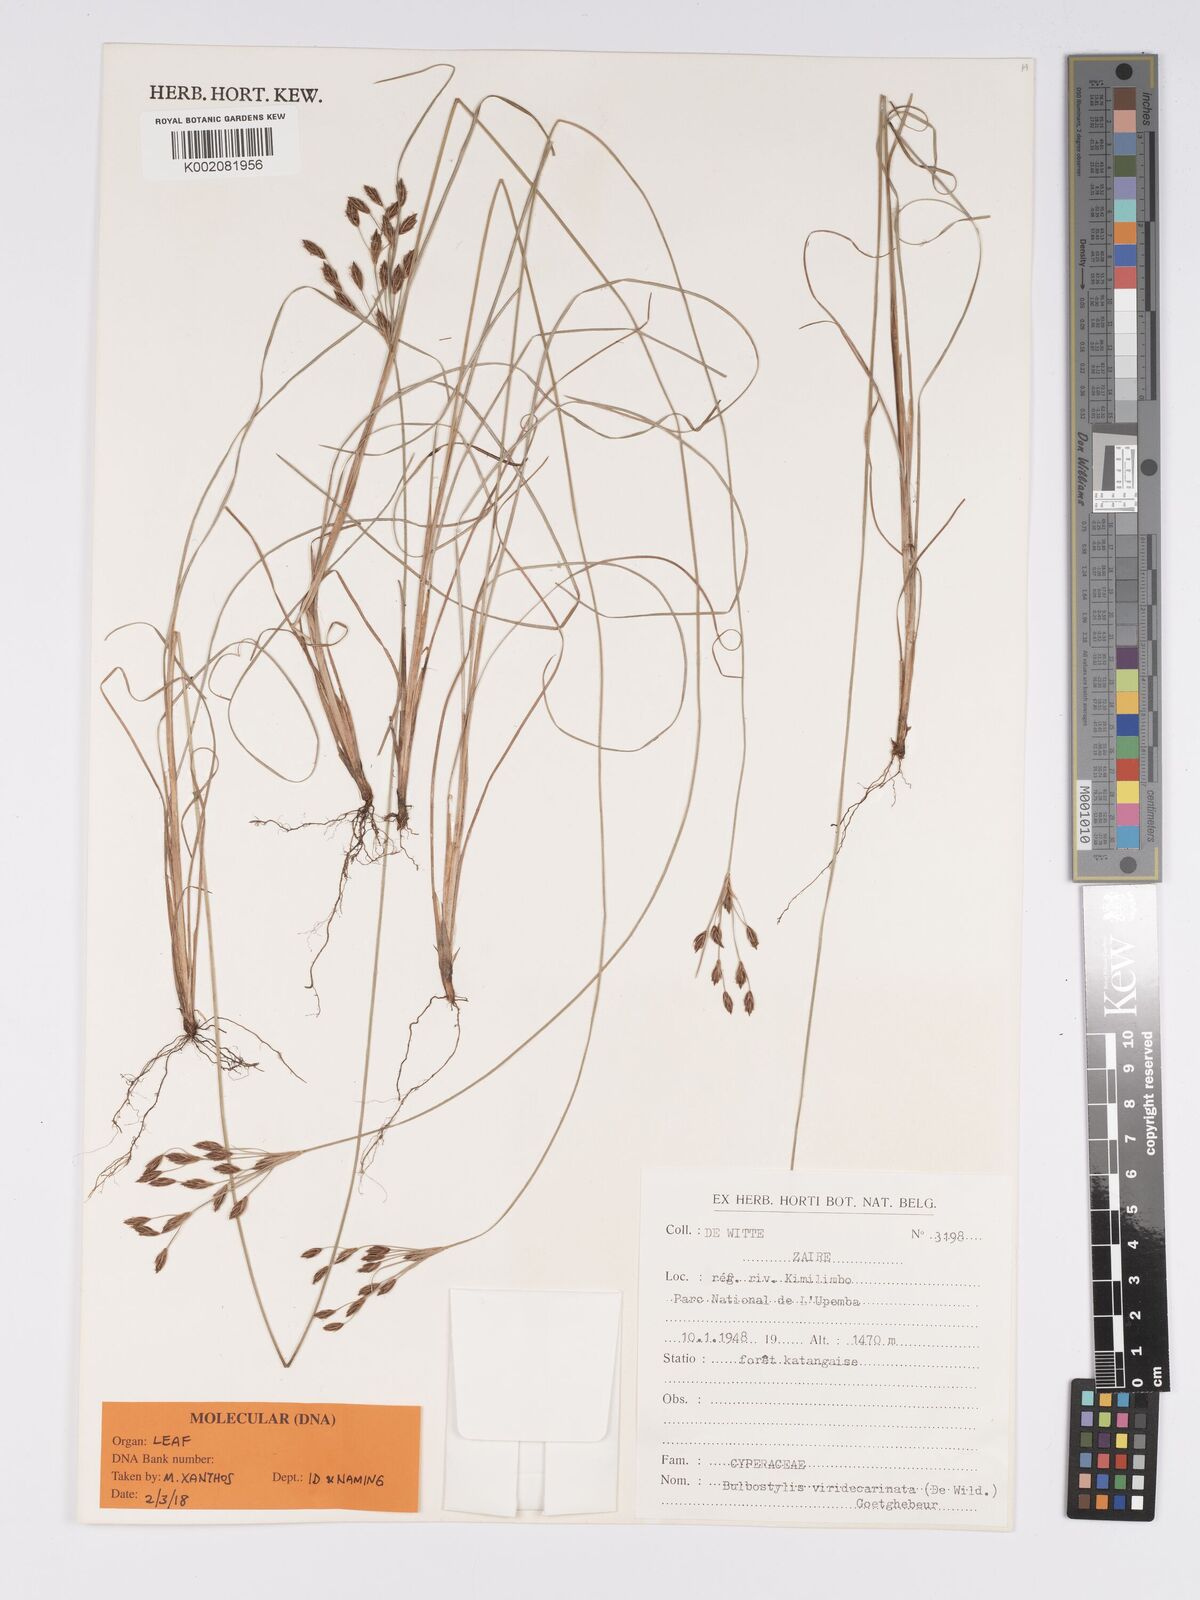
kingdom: Plantae
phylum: Tracheophyta
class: Liliopsida
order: Poales
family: Cyperaceae
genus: Bulbostylis
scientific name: Bulbostylis viridecarinata
